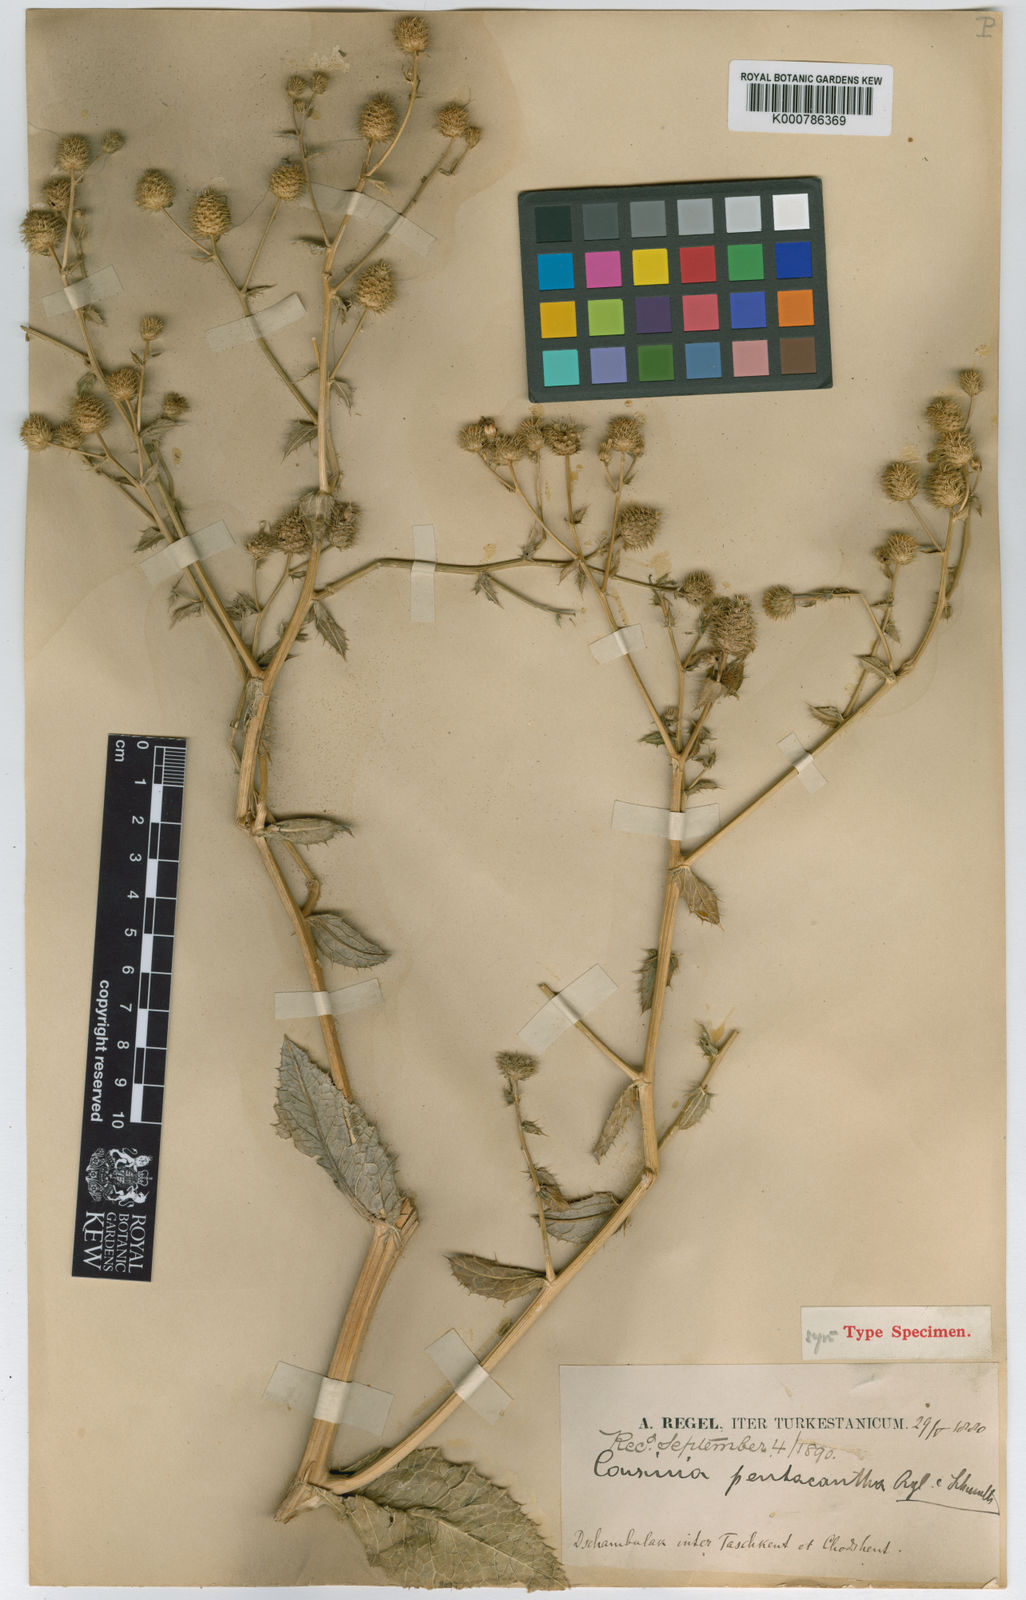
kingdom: Plantae
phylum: Tracheophyta
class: Magnoliopsida
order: Asterales
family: Asteraceae
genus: Arctium
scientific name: Arctium pentacanthum
